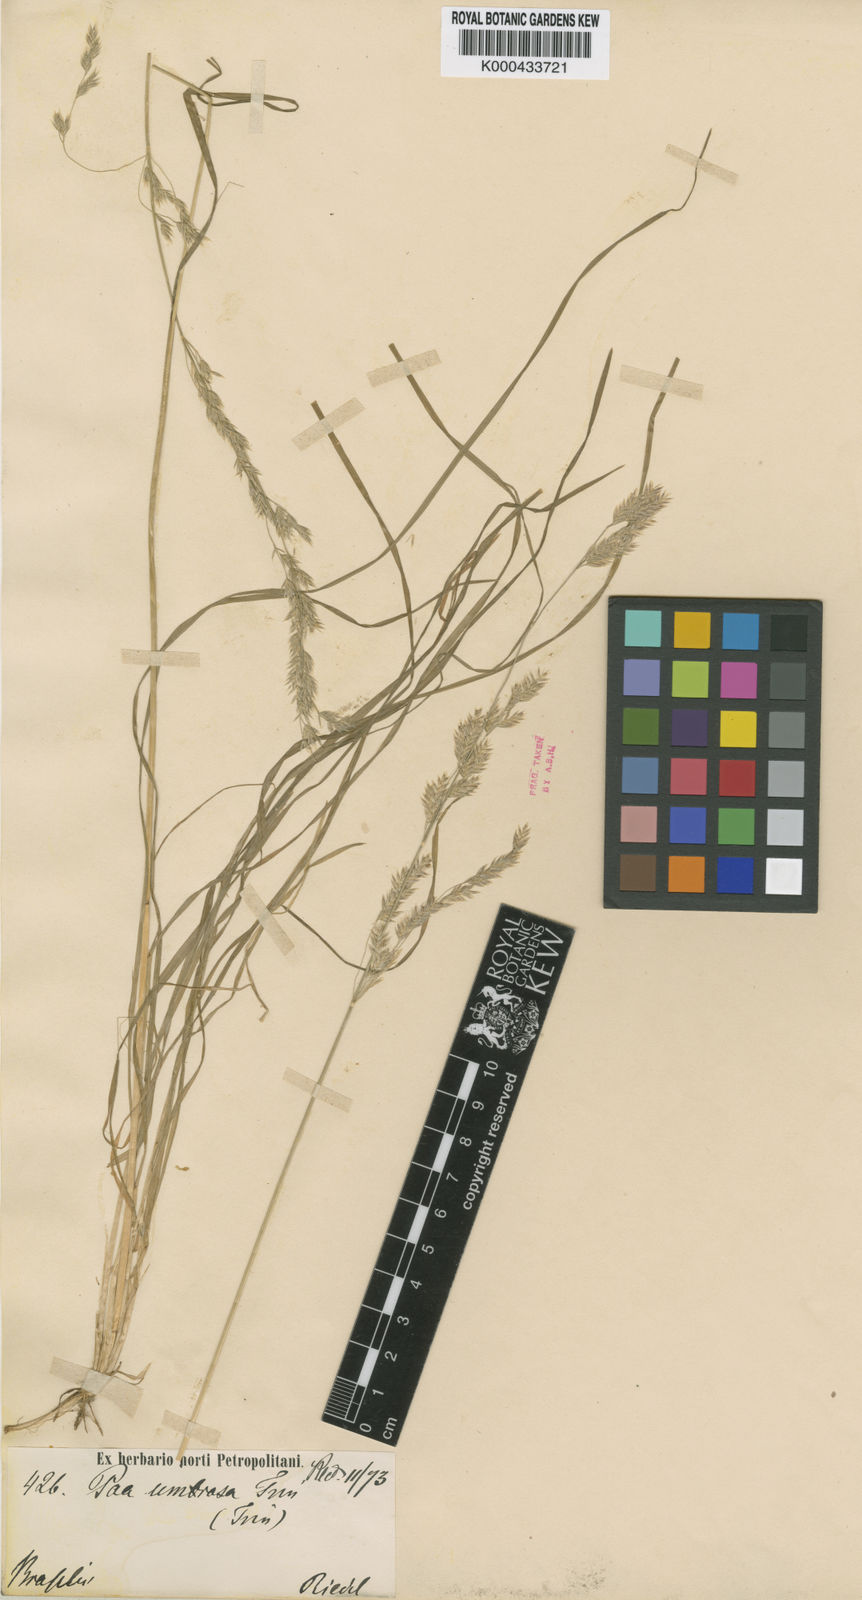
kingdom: Plantae
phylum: Tracheophyta
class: Liliopsida
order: Poales
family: Poaceae
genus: Poa
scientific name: Poa umbrosa
